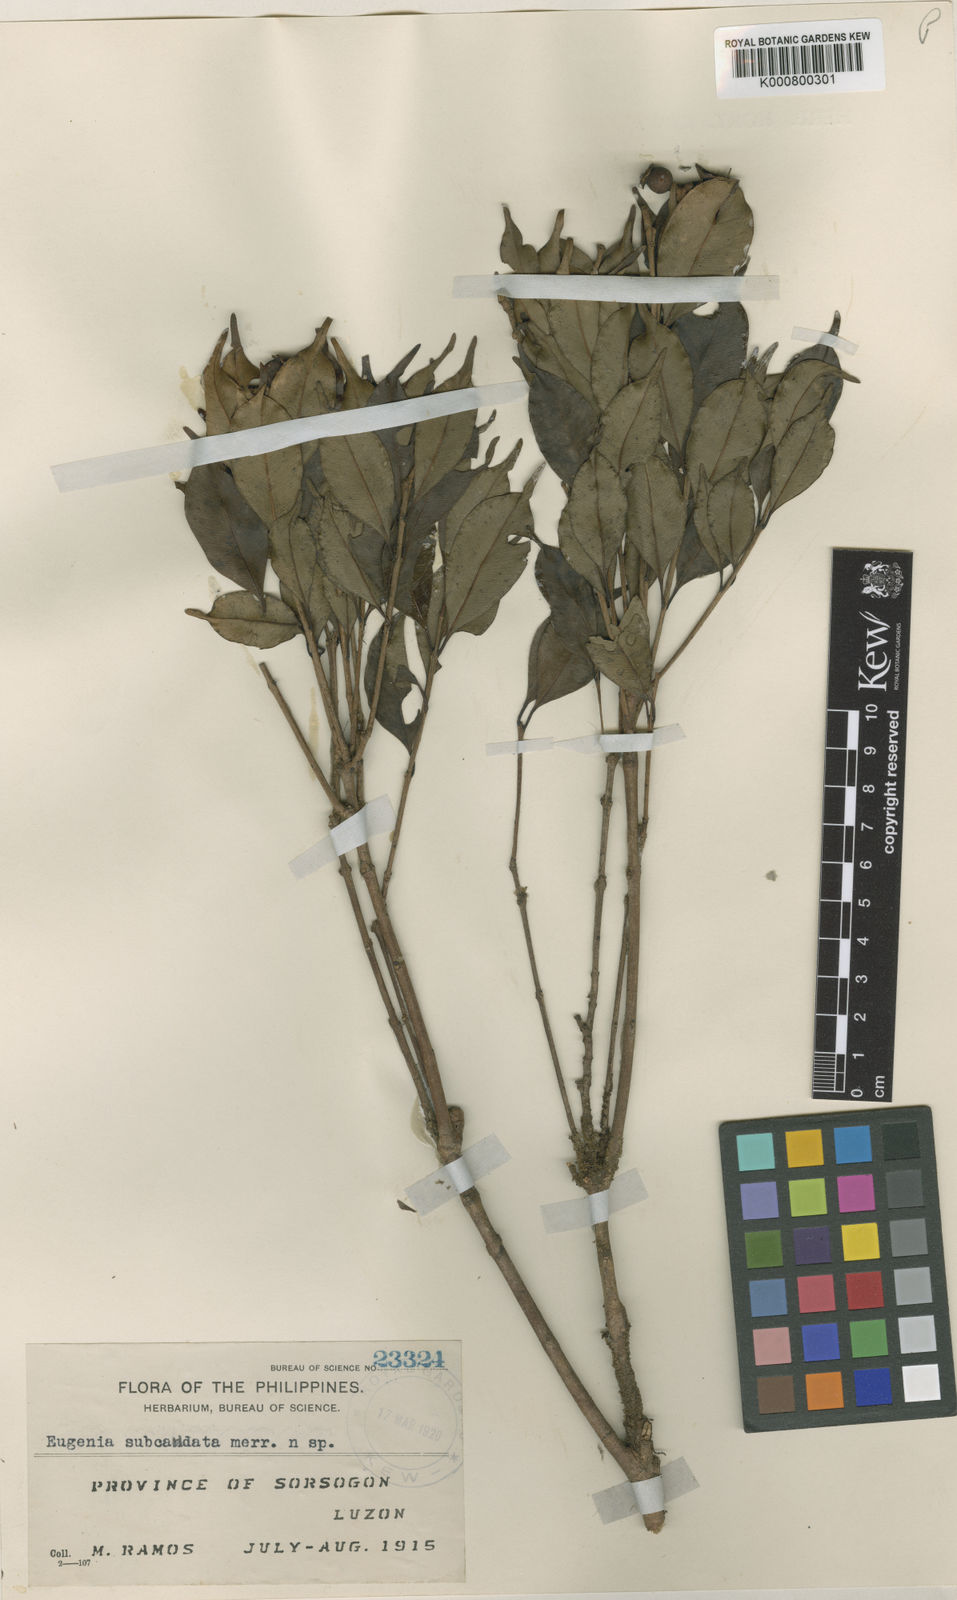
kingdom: Plantae
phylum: Tracheophyta
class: Magnoliopsida
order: Myrtales
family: Myrtaceae
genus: Syzygium
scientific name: Syzygium subcaudatum
